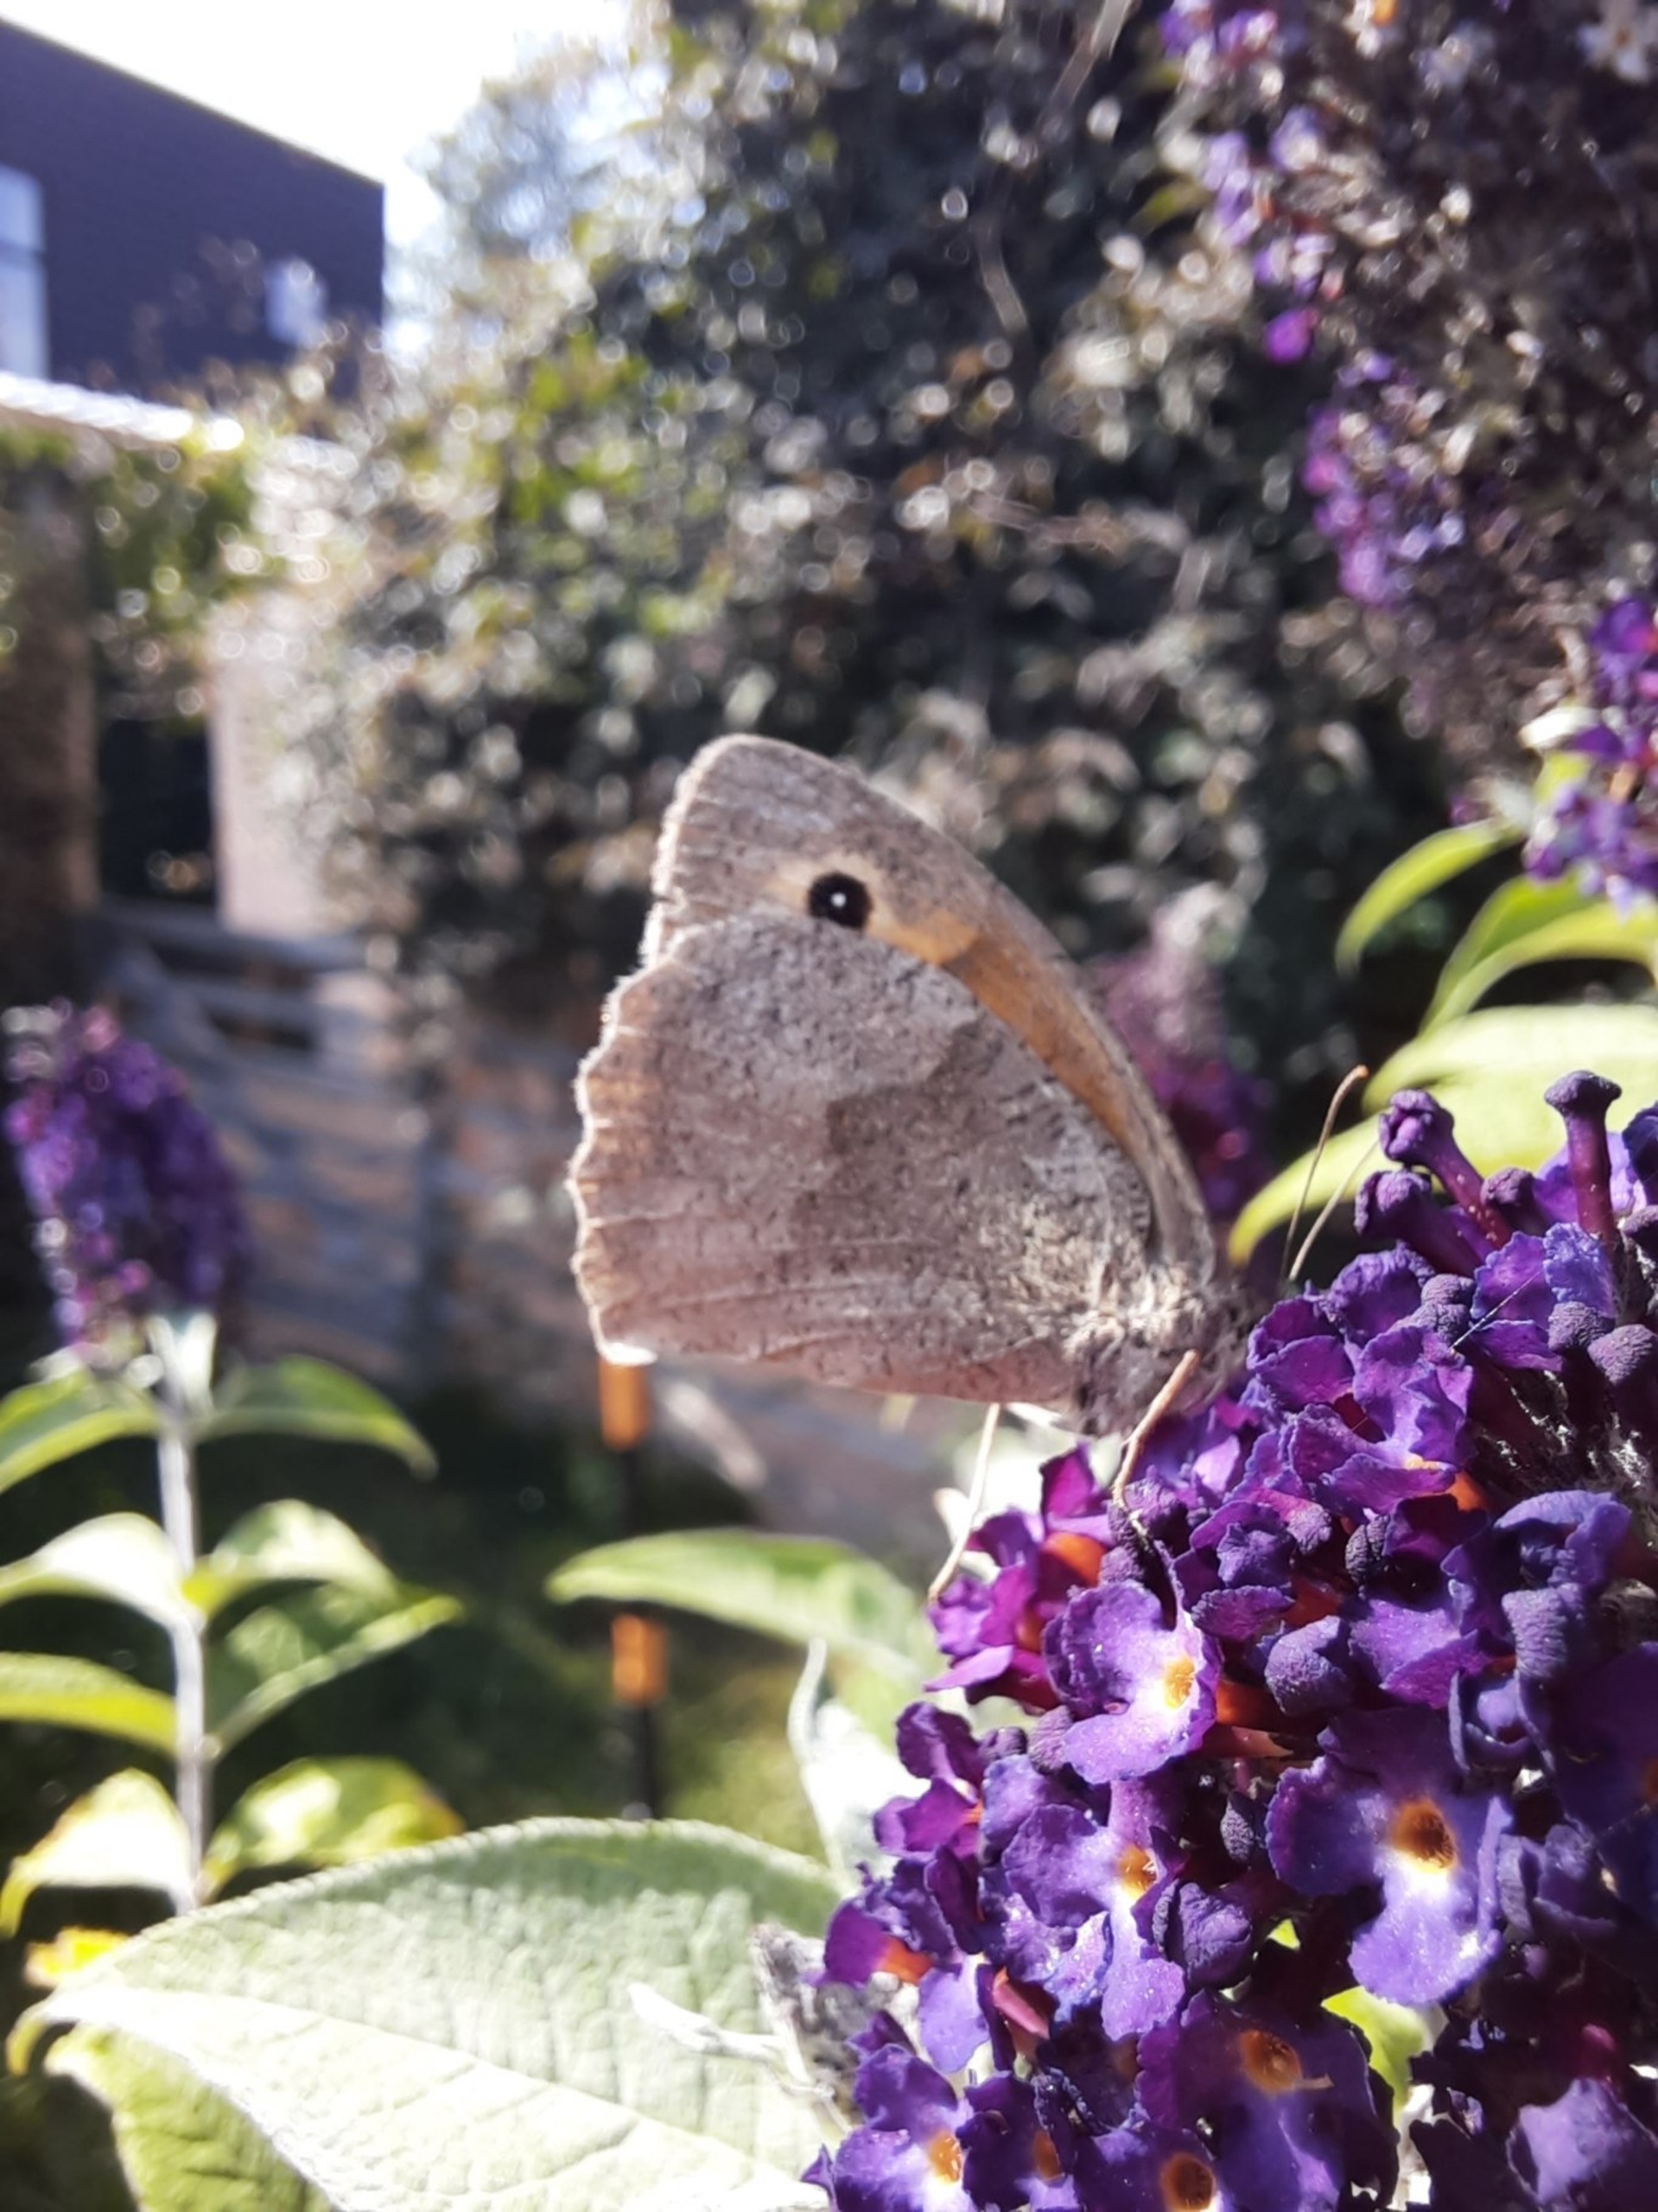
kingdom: Animalia
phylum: Arthropoda
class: Insecta
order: Lepidoptera
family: Nymphalidae
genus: Maniola
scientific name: Maniola jurtina
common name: Græsrandøje
